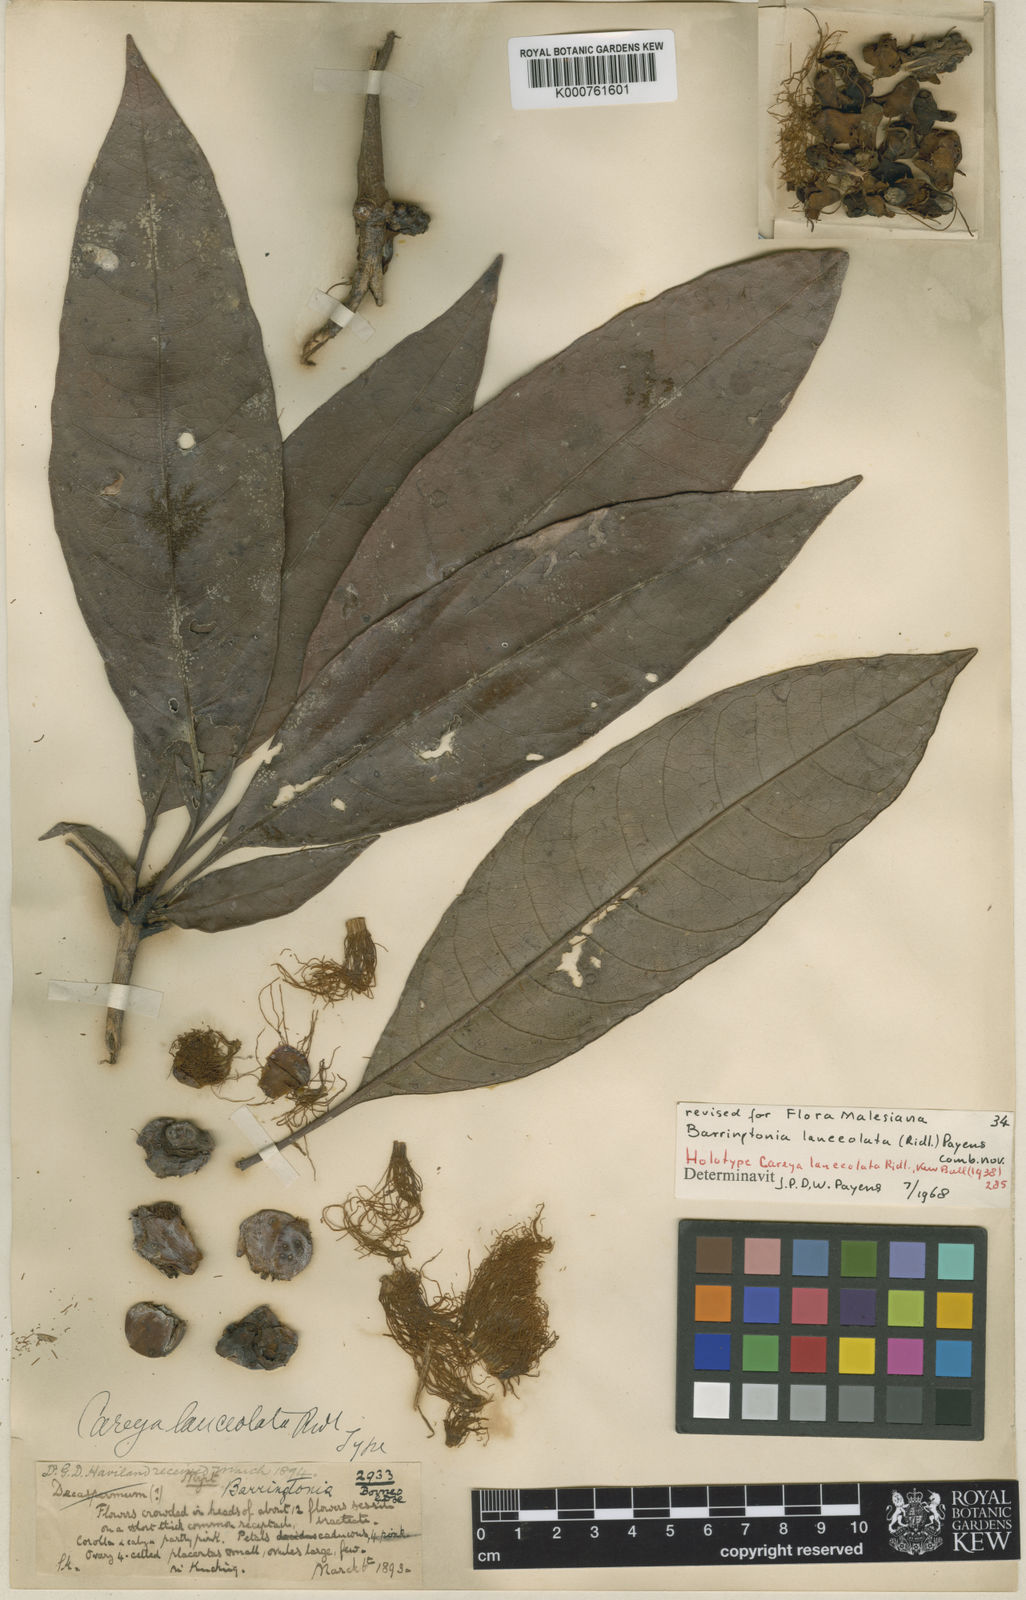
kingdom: Plantae
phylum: Tracheophyta
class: Magnoliopsida
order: Ericales
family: Lecythidaceae
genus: Barringtonia
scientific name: Barringtonia lanceolata
